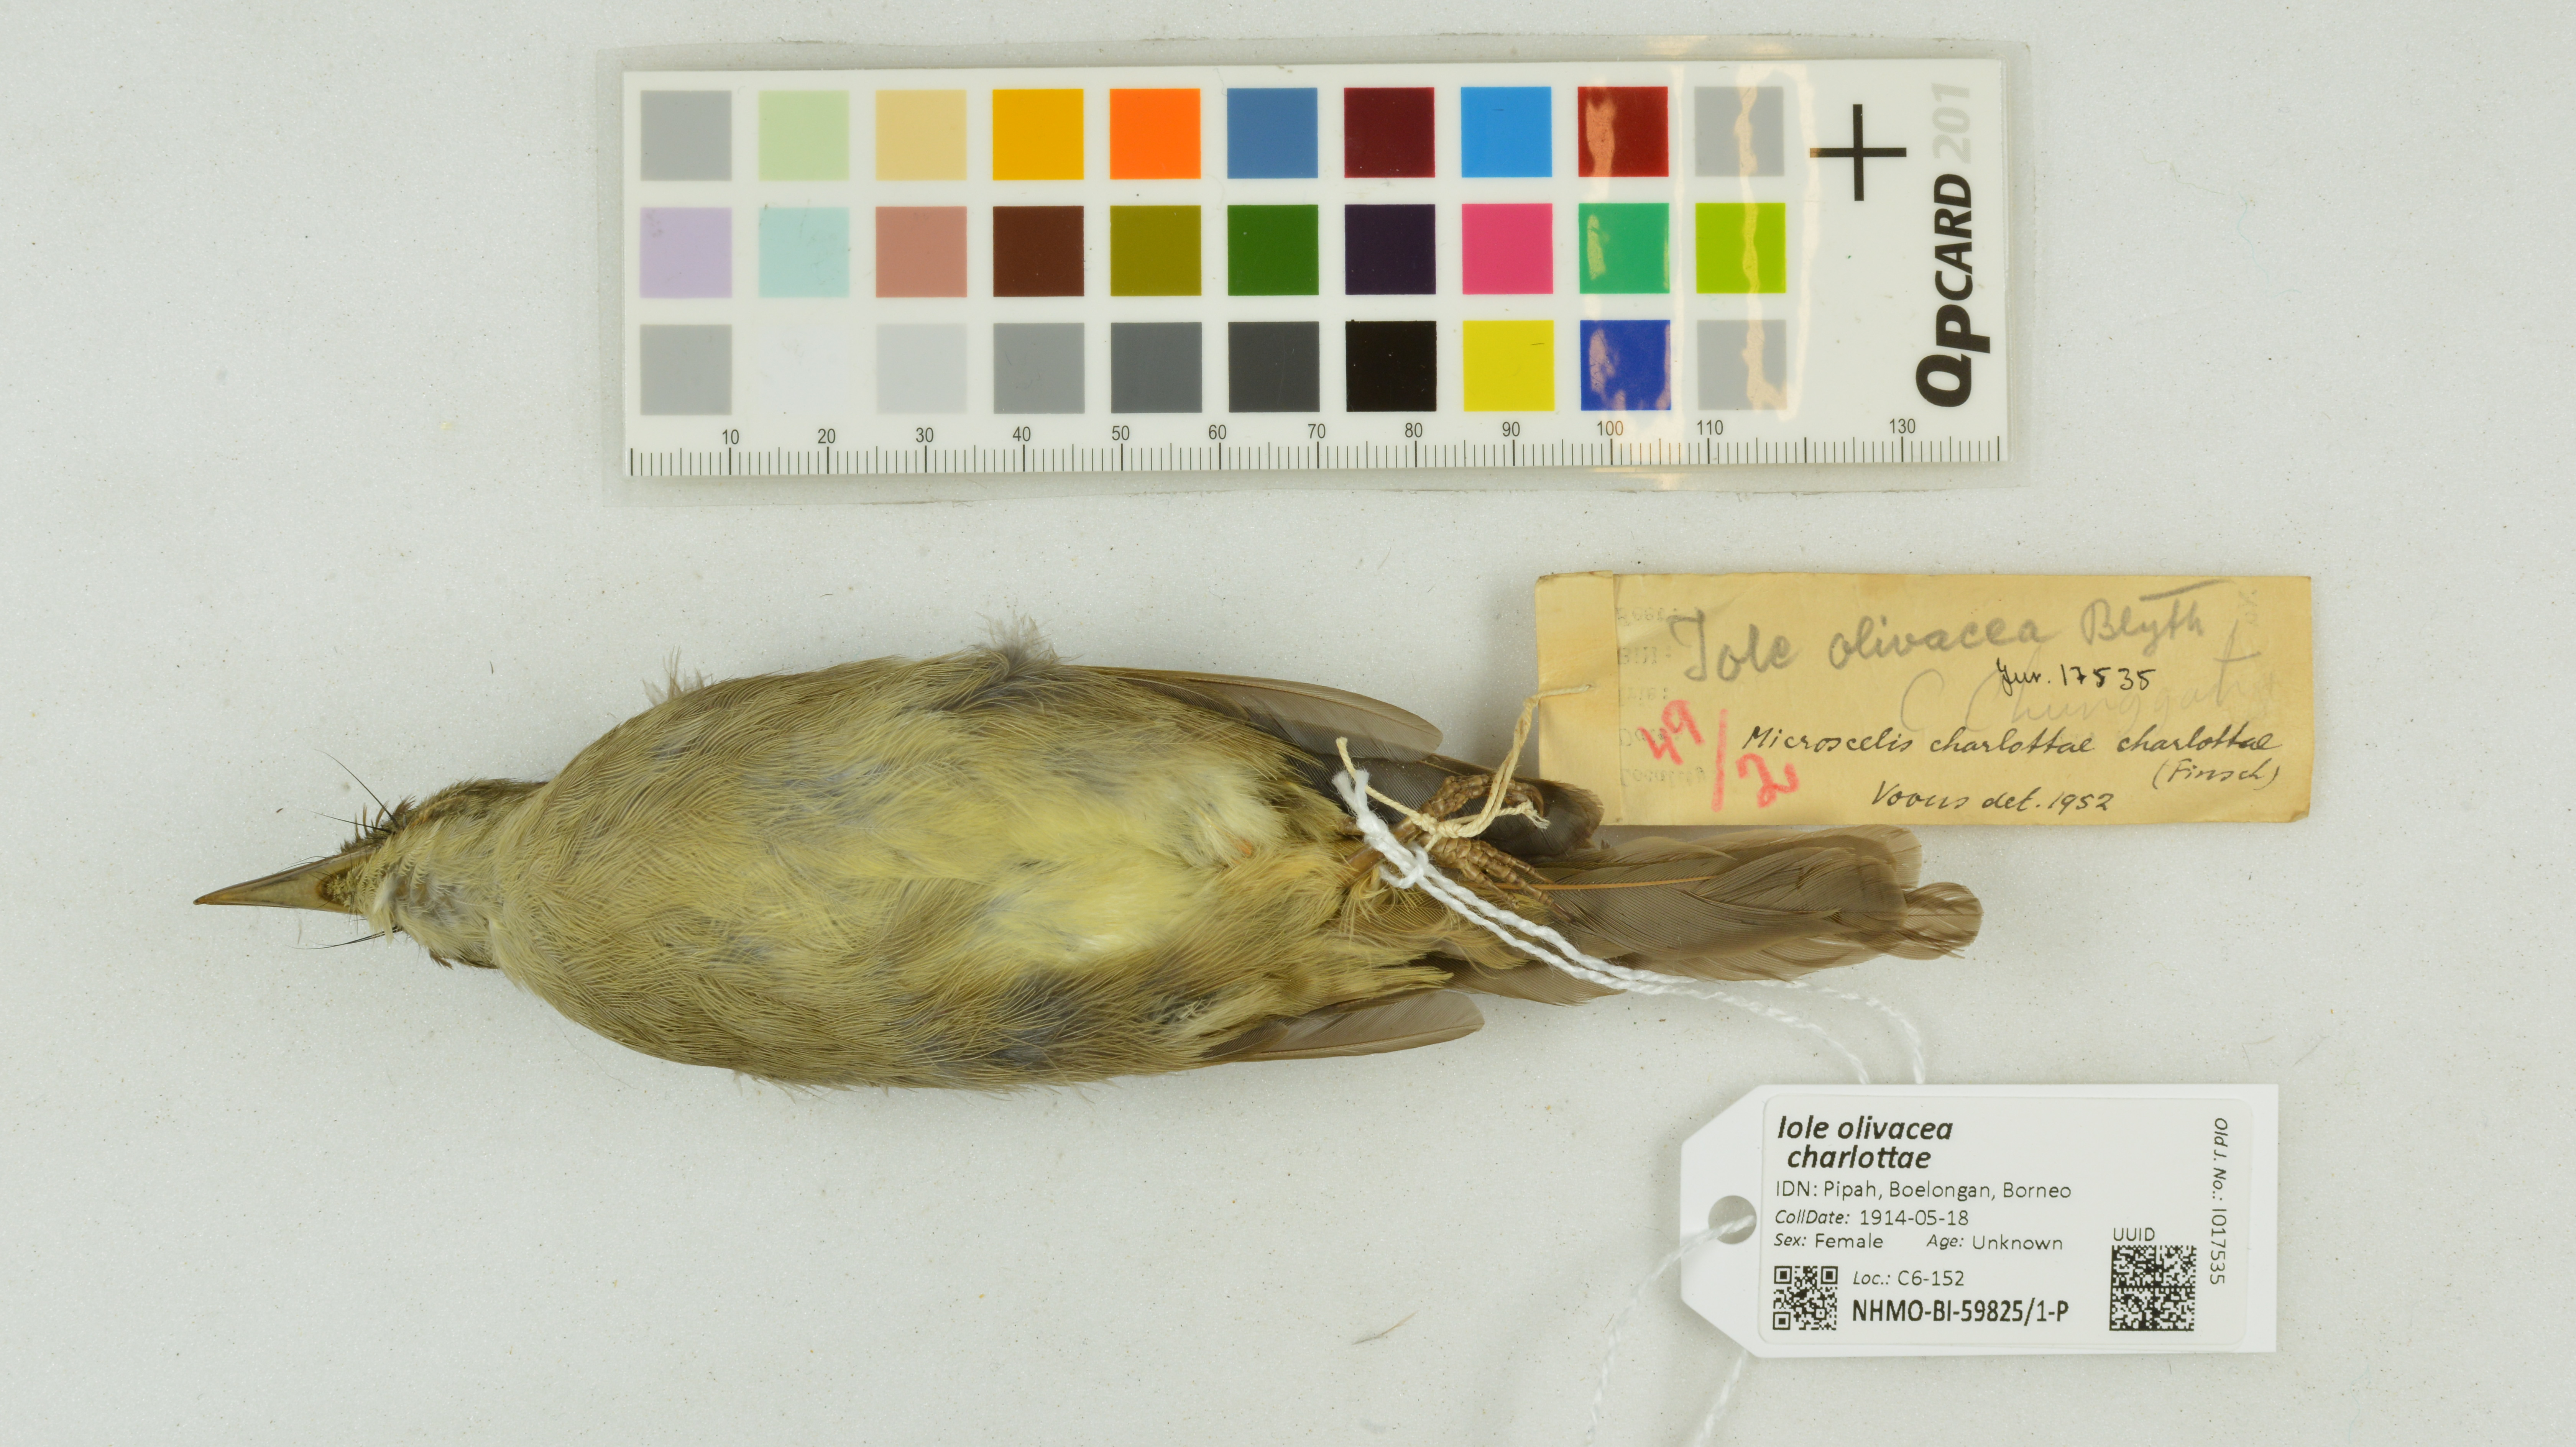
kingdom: Animalia
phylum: Chordata
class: Aves
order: Passeriformes
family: Pycnonotidae
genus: Iole
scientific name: Iole olivacea
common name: Buff-vented bulbul
